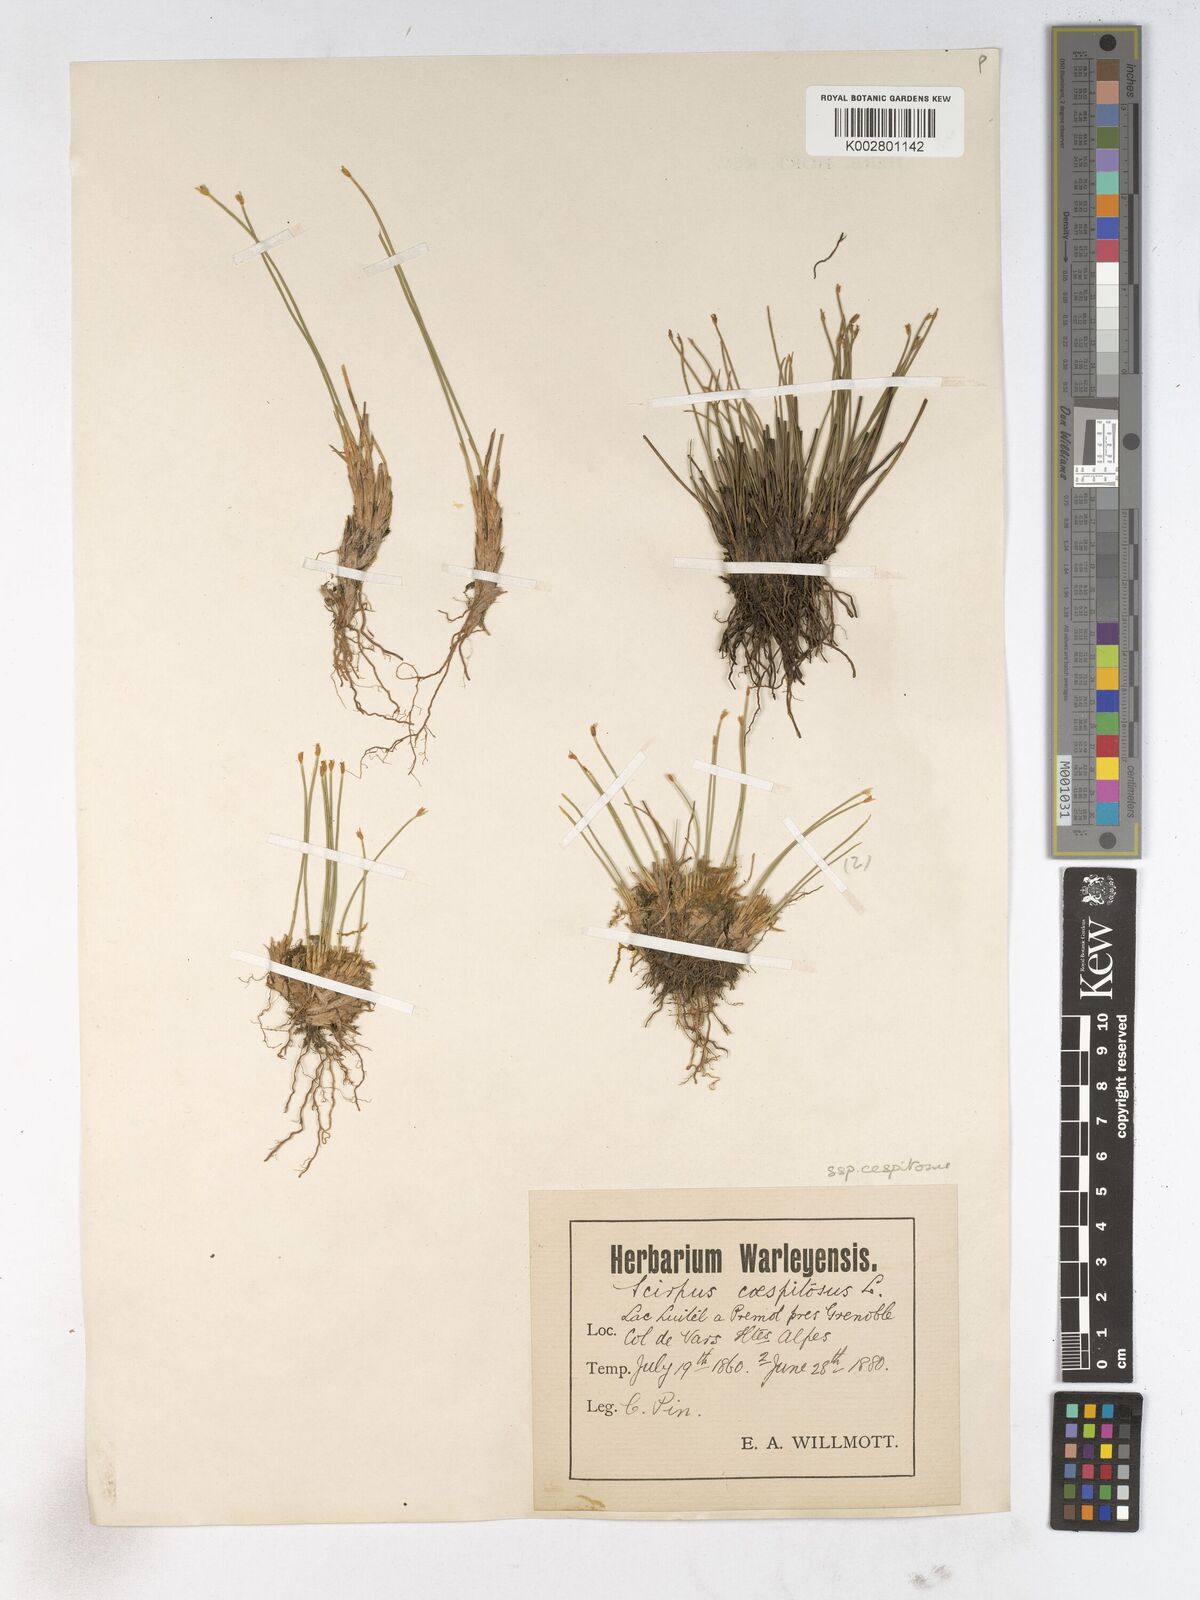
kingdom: Plantae
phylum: Tracheophyta
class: Liliopsida
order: Poales
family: Cyperaceae
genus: Trichophorum
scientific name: Trichophorum cespitosum
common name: Cespitose bulrush
